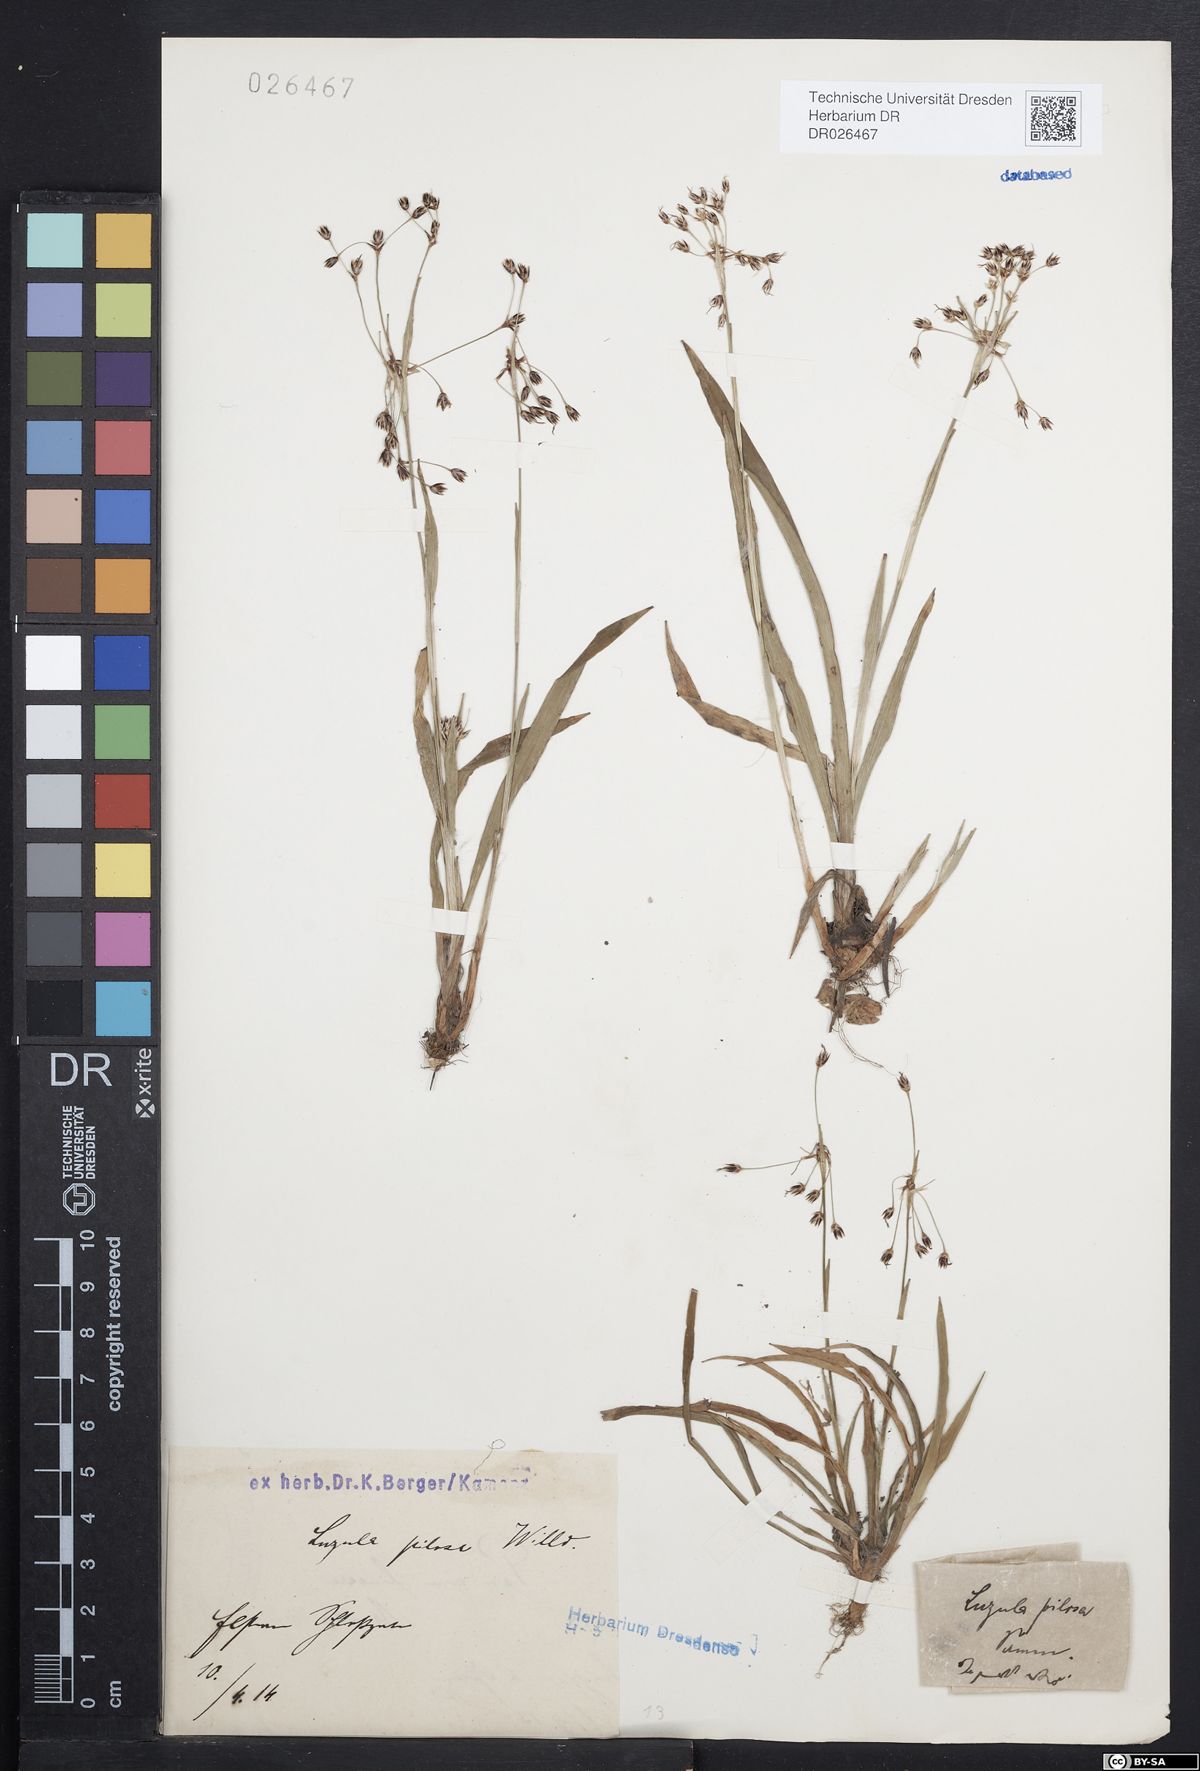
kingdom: Plantae
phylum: Tracheophyta
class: Liliopsida
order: Poales
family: Juncaceae
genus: Luzula
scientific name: Luzula pilosa
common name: Hairy wood-rush
